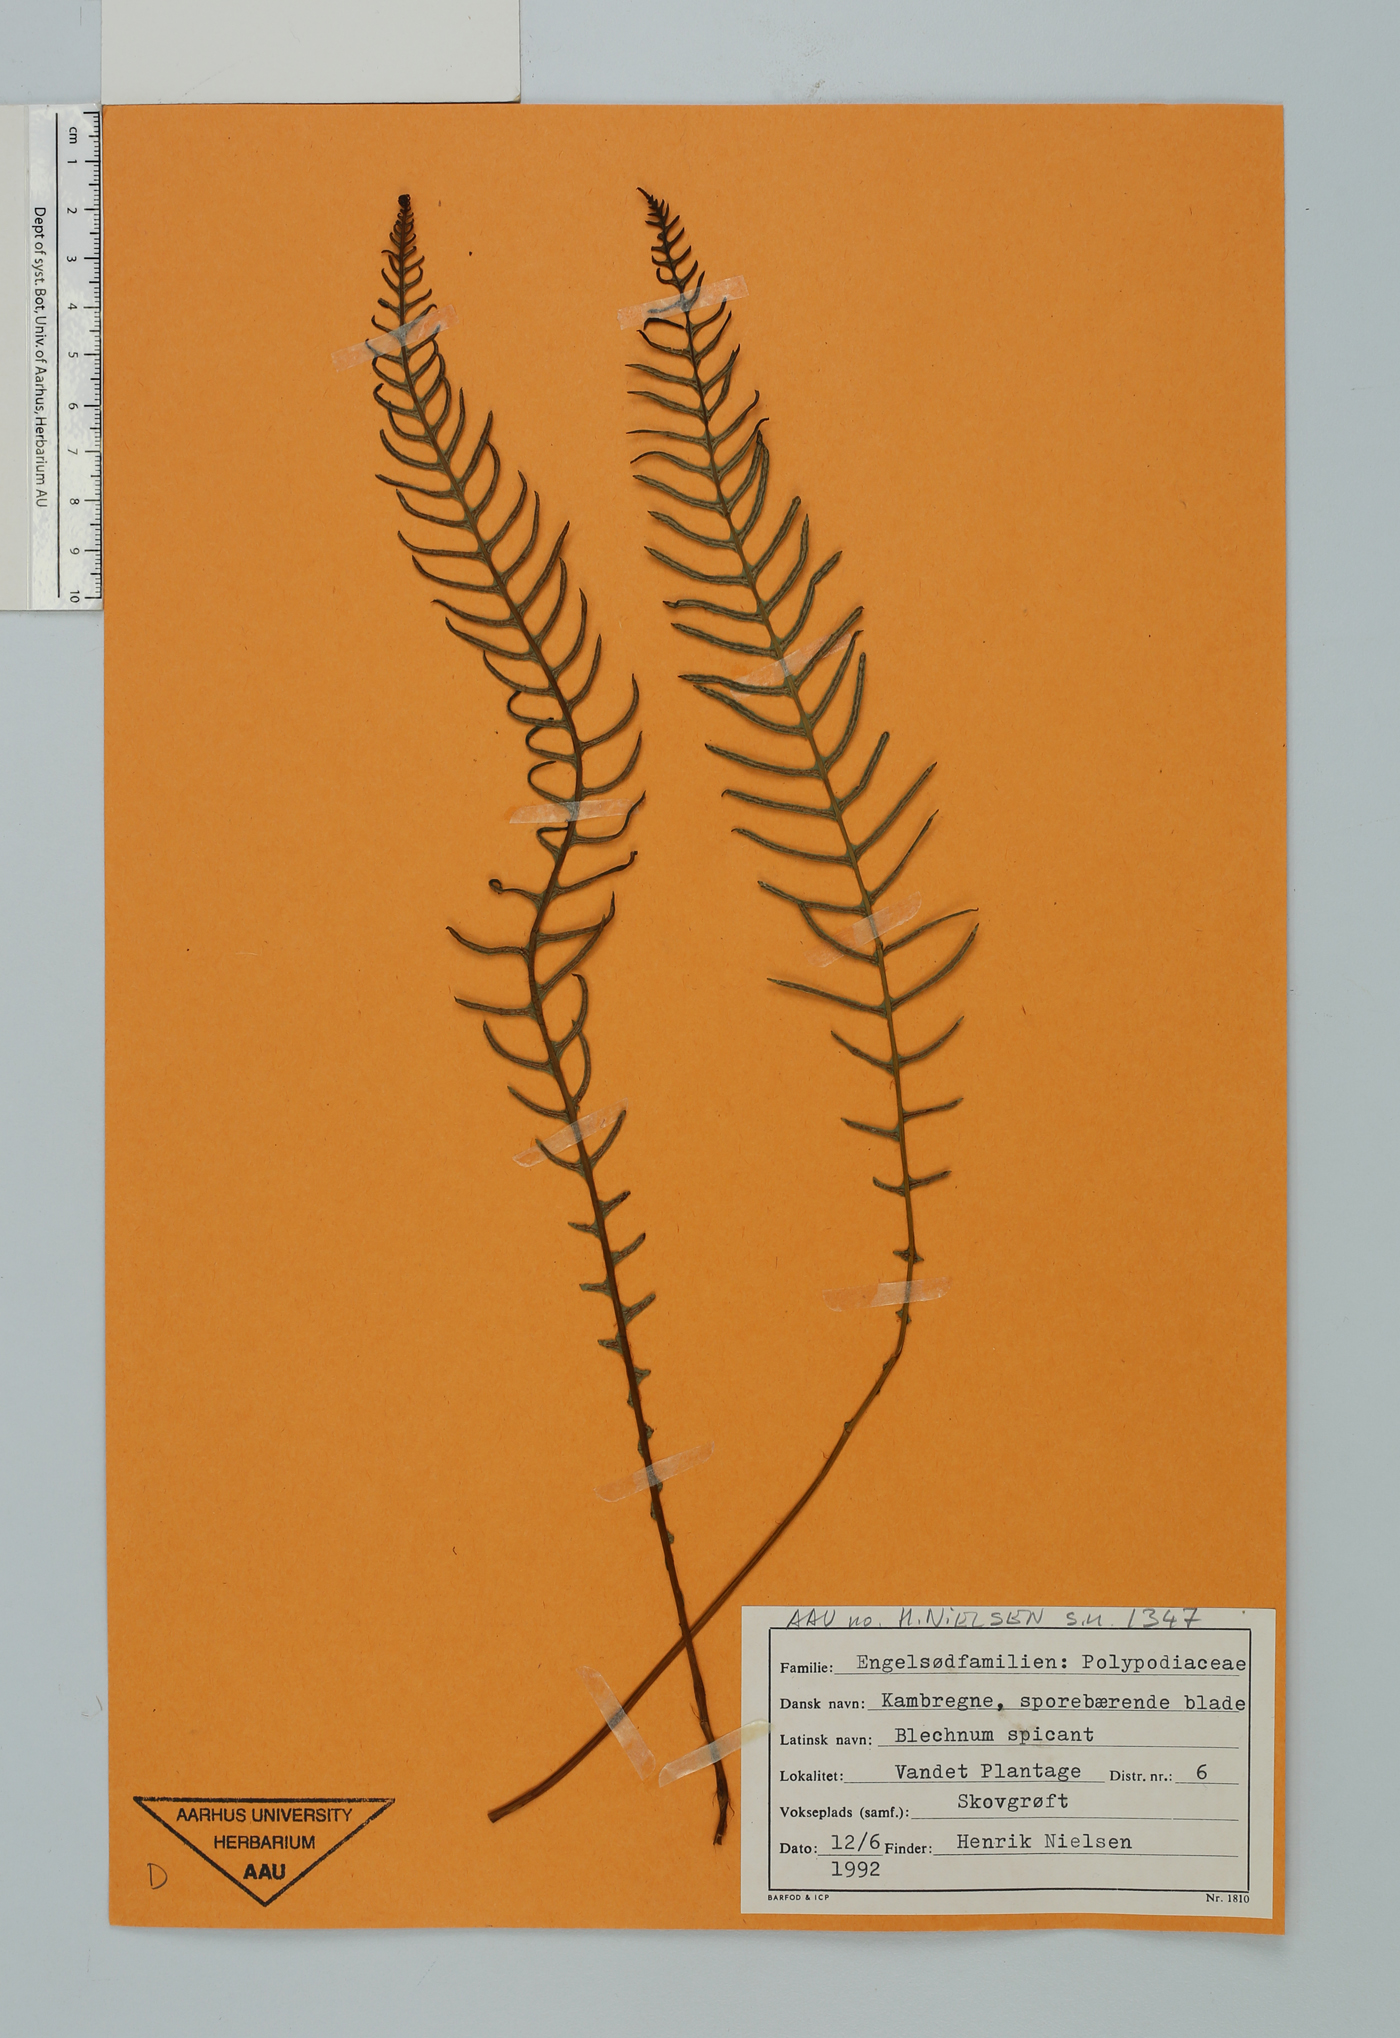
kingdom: Plantae
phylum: Tracheophyta
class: Polypodiopsida
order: Polypodiales
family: Blechnaceae
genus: Struthiopteris
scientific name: Struthiopteris spicant
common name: Deer fern
